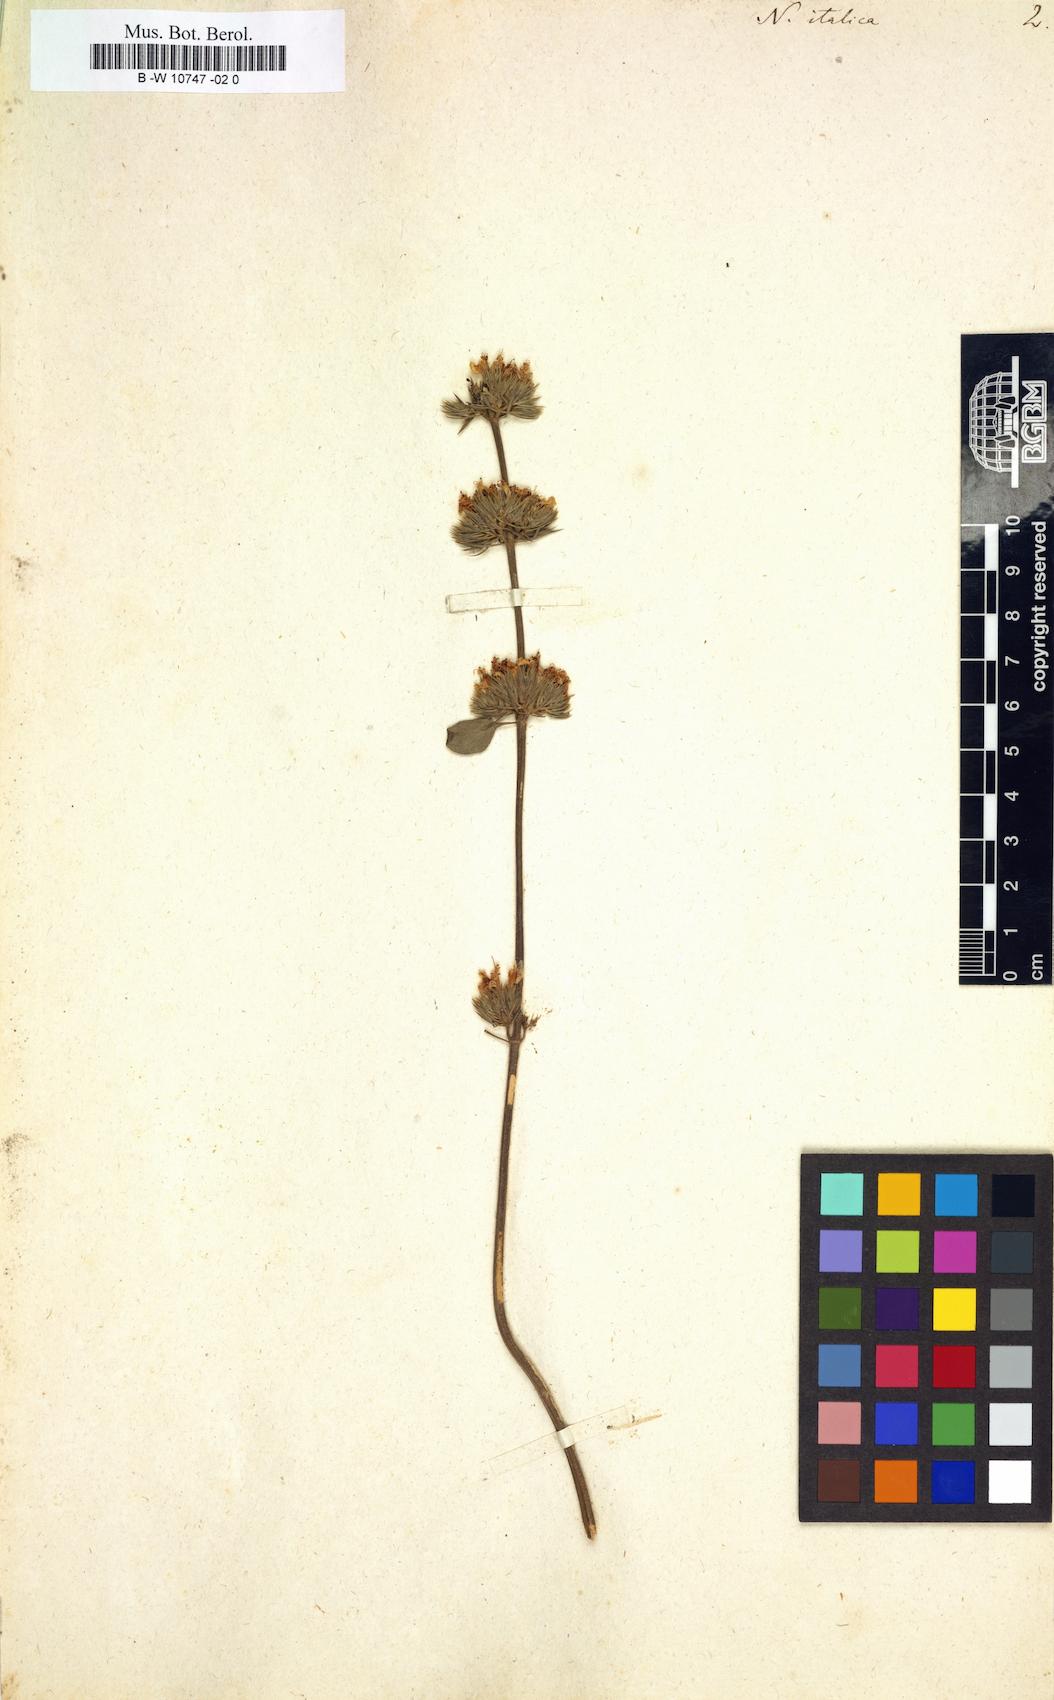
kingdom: Plantae
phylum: Tracheophyta
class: Magnoliopsida
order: Lamiales
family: Lamiaceae
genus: Nepeta
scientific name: Nepeta italica
